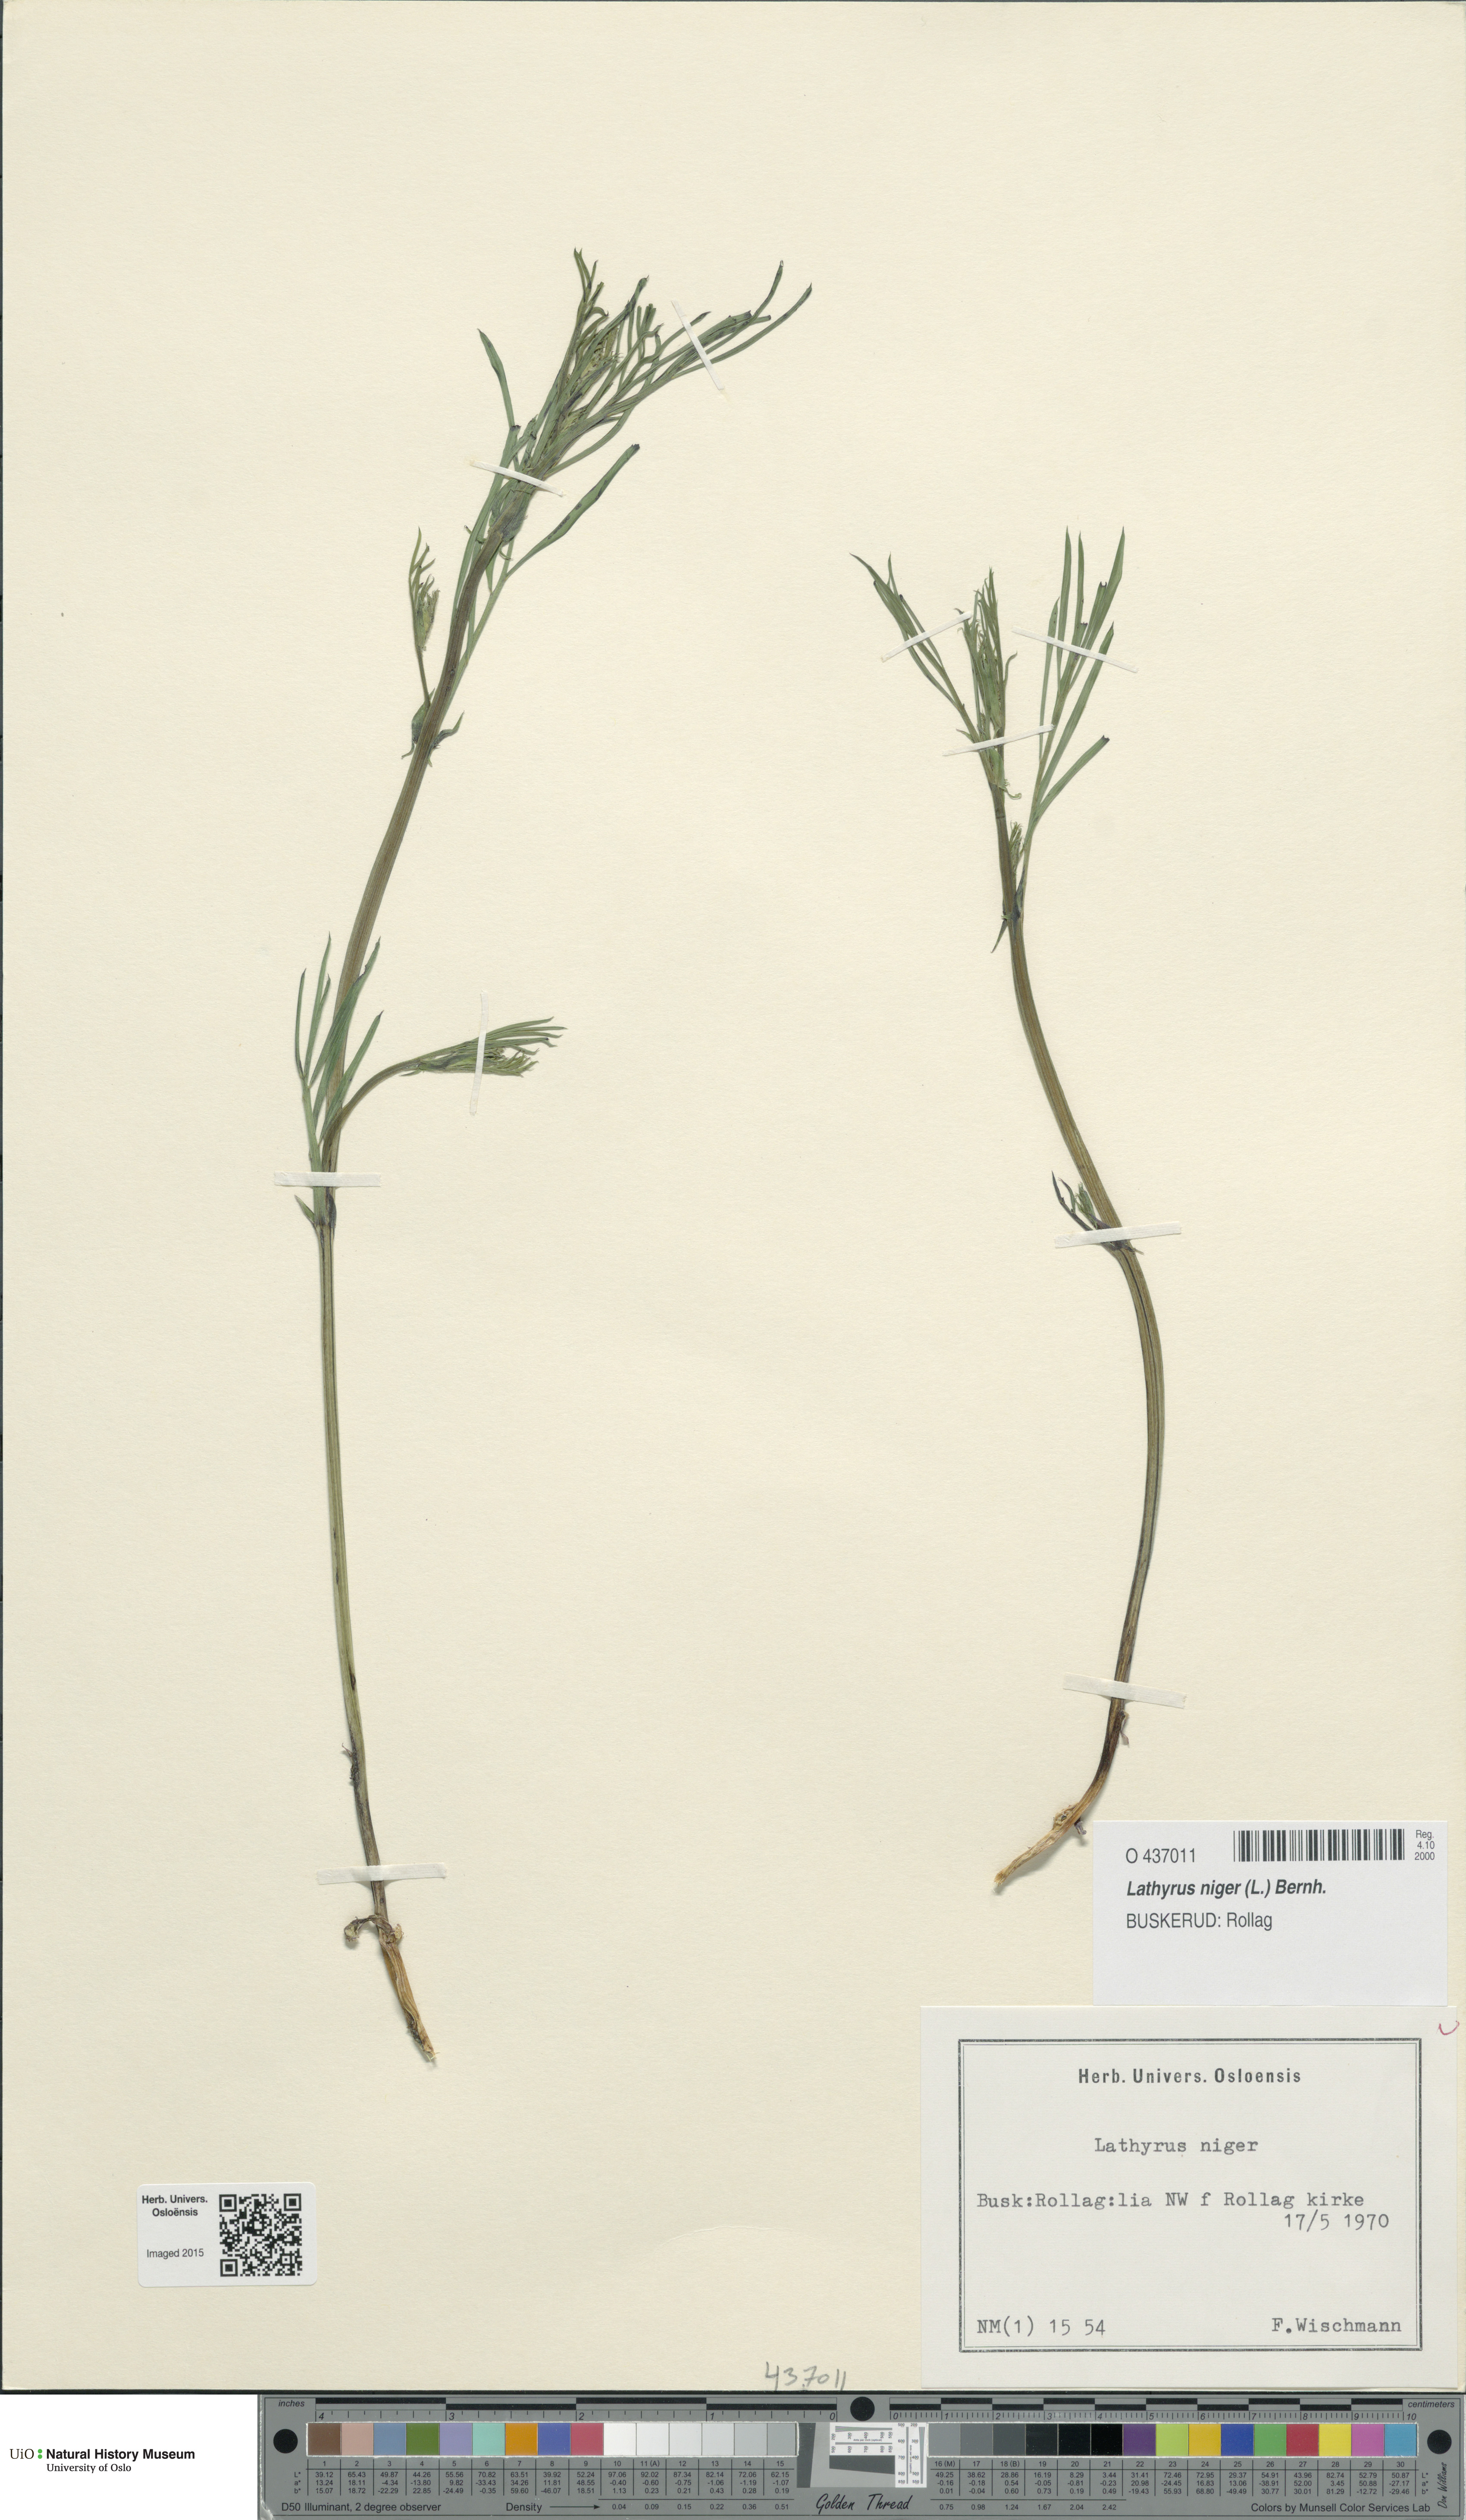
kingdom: Plantae
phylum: Tracheophyta
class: Magnoliopsida
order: Fabales
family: Fabaceae
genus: Lathyrus
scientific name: Lathyrus niger
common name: Black pea
